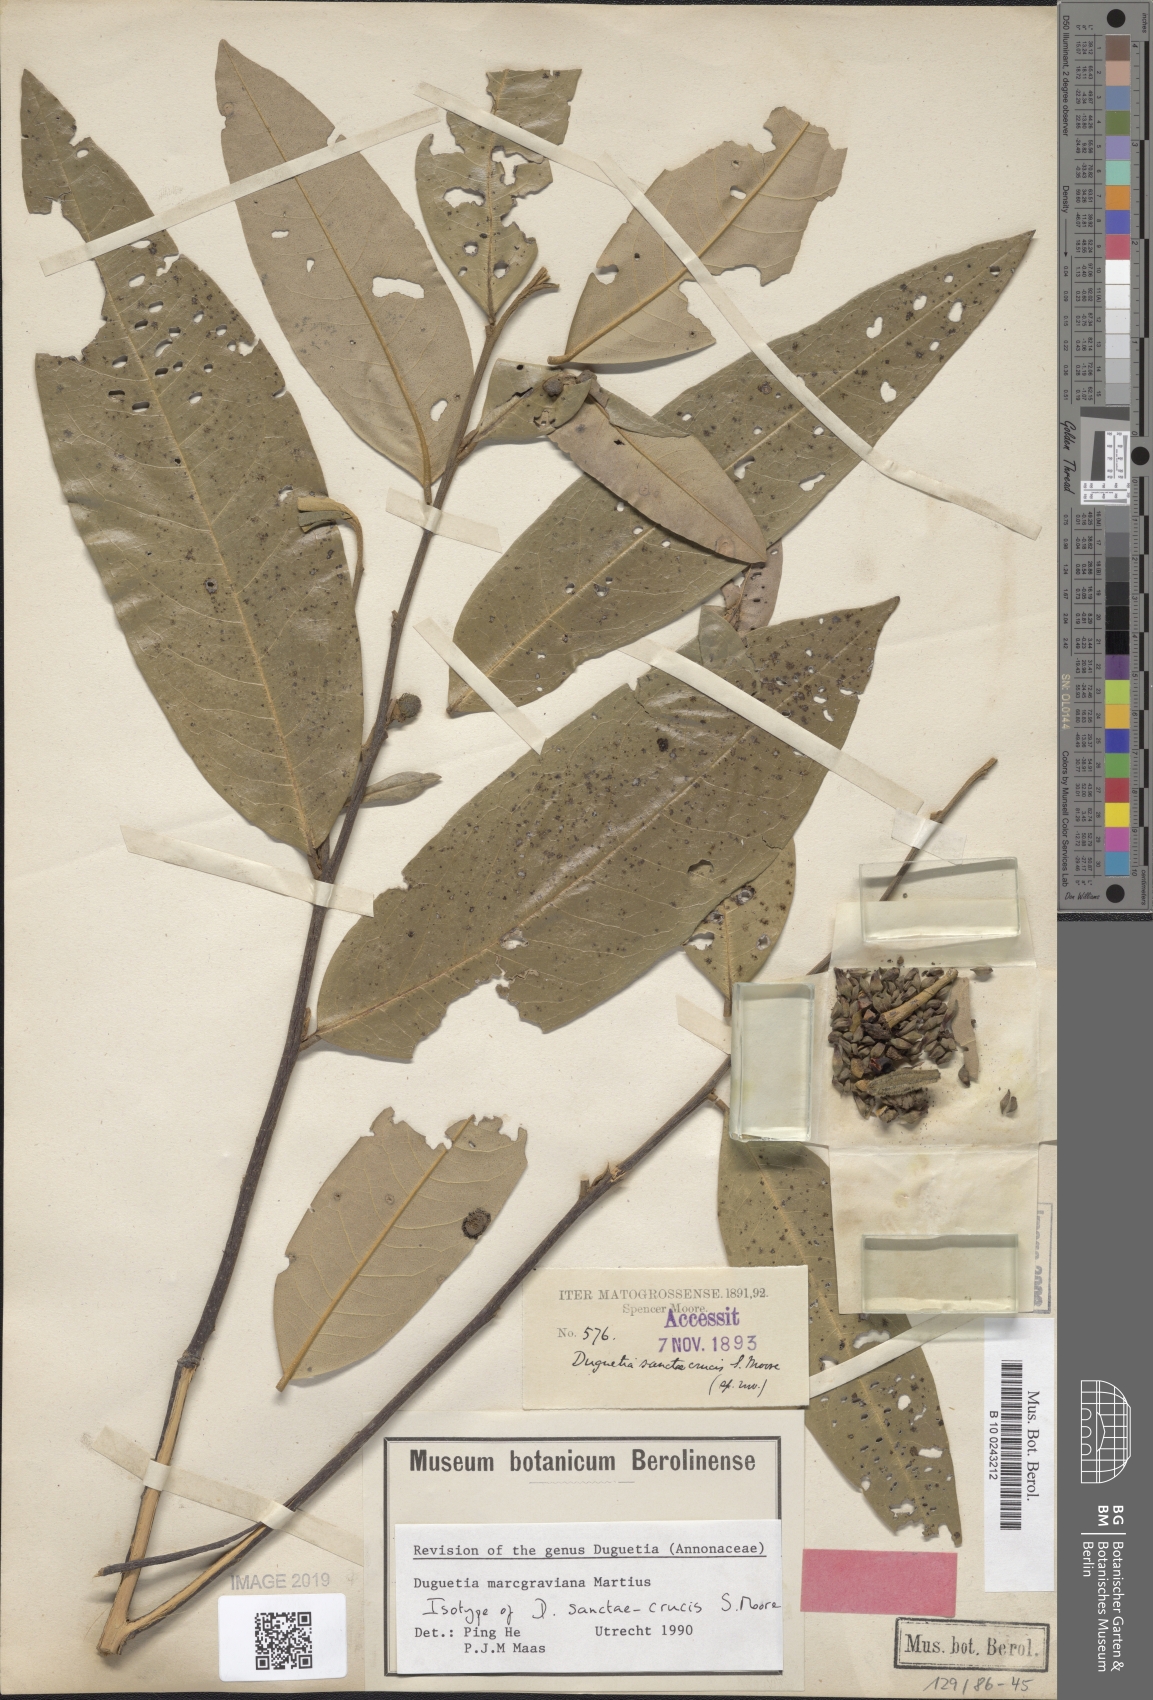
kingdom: Plantae
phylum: Tracheophyta
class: Magnoliopsida
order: Magnoliales
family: Annonaceae
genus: Duguetia
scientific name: Duguetia marcgraviana
